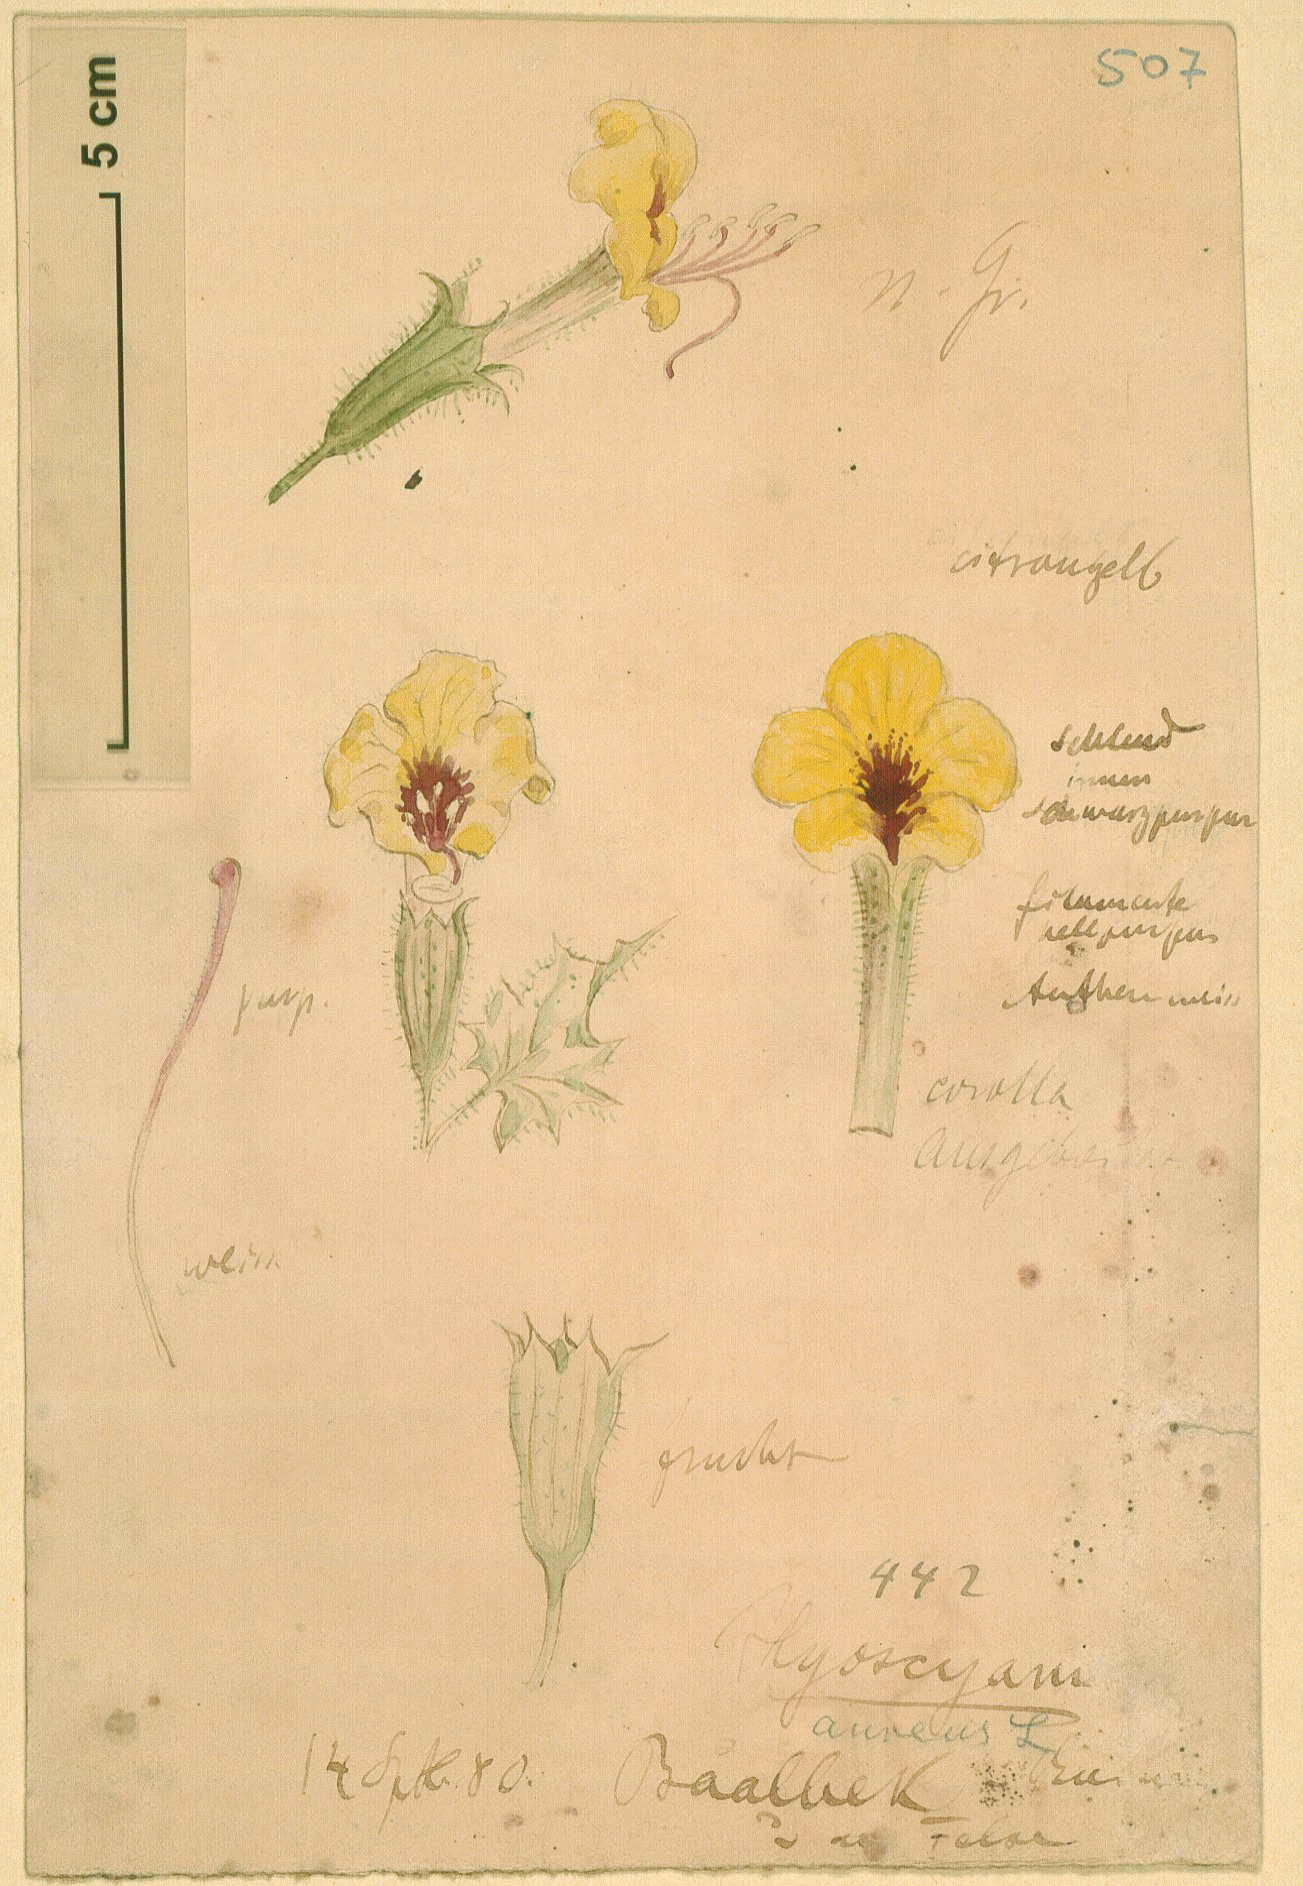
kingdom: Plantae
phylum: Tracheophyta
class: Magnoliopsida
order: Solanales
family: Solanaceae
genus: Hyoscyamus
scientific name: Hyoscyamus aureus
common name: Golden henbane
